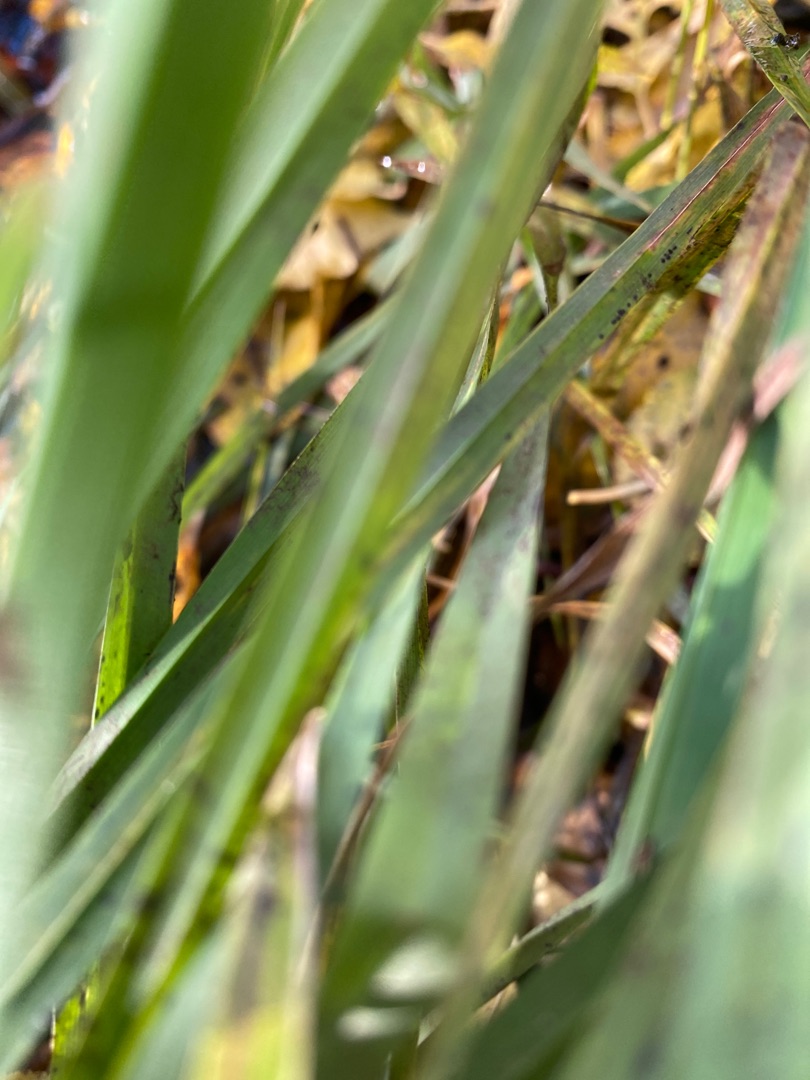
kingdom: Plantae
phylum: Tracheophyta
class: Liliopsida
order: Poales
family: Poaceae
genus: Dactylis
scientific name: Dactylis glomerata
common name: Almindelig hundegræs
